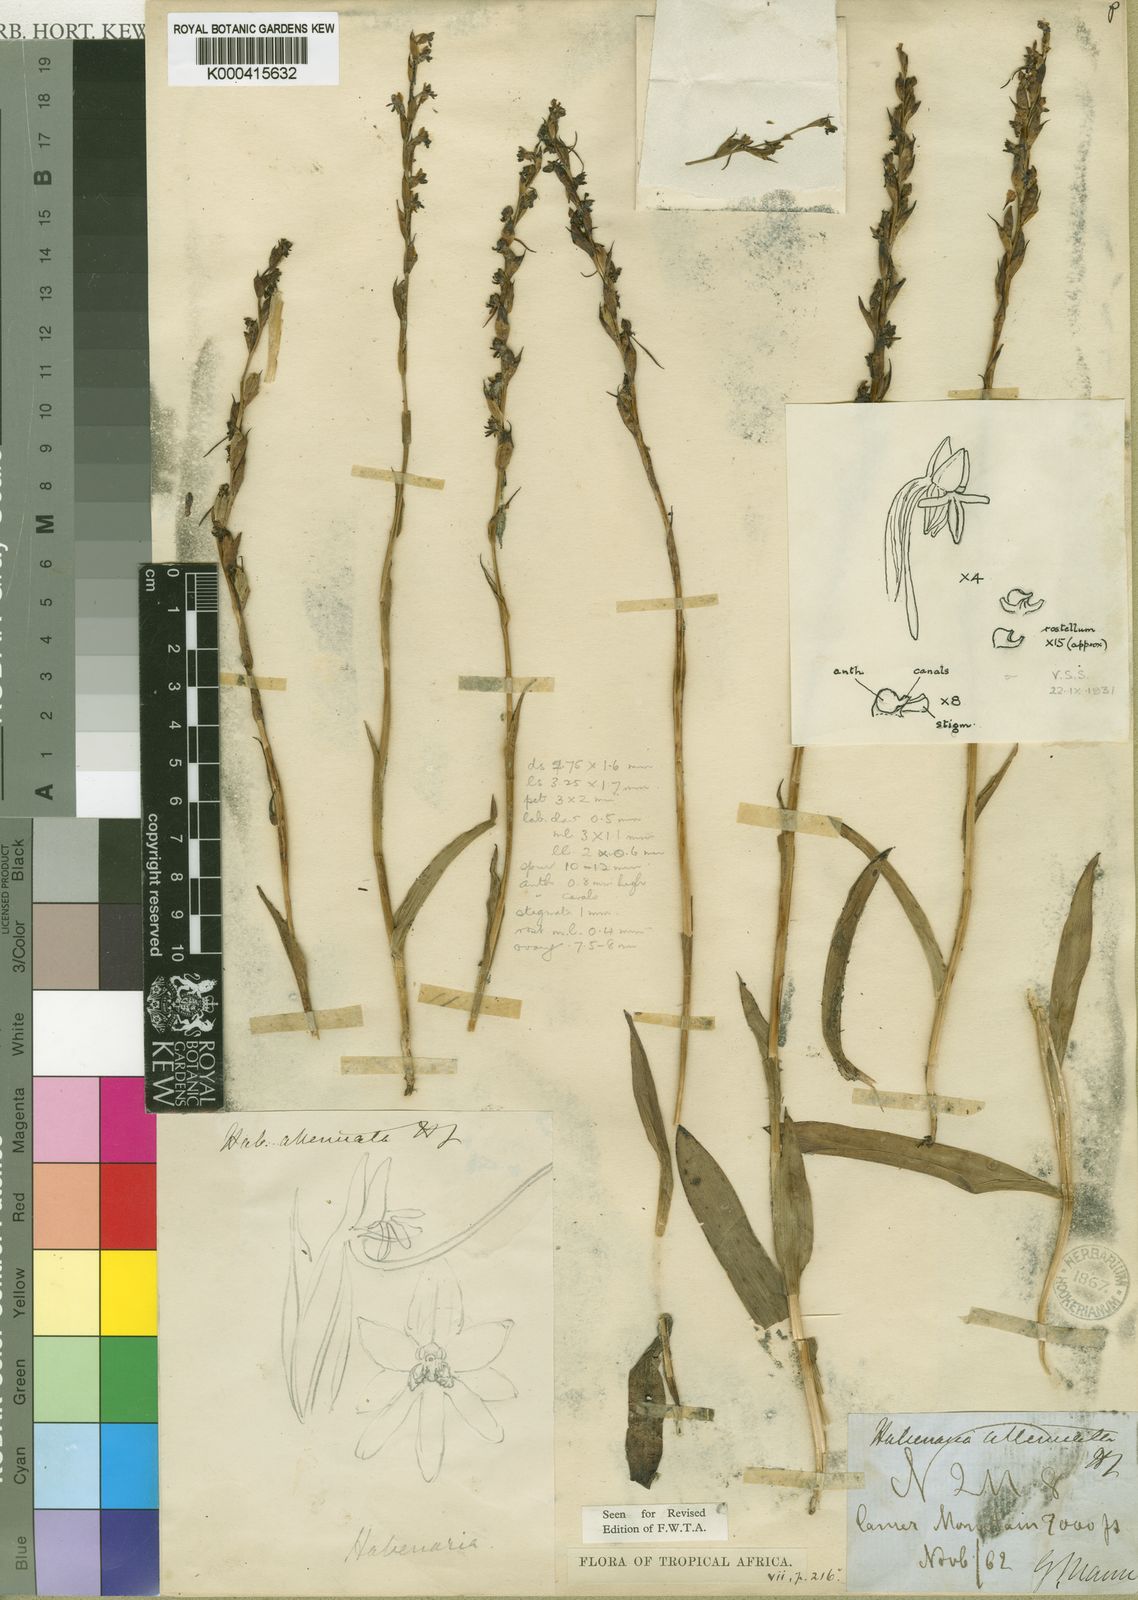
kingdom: Plantae
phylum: Tracheophyta
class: Liliopsida
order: Asparagales
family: Orchidaceae
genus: Habenaria
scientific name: Habenaria attenuata
